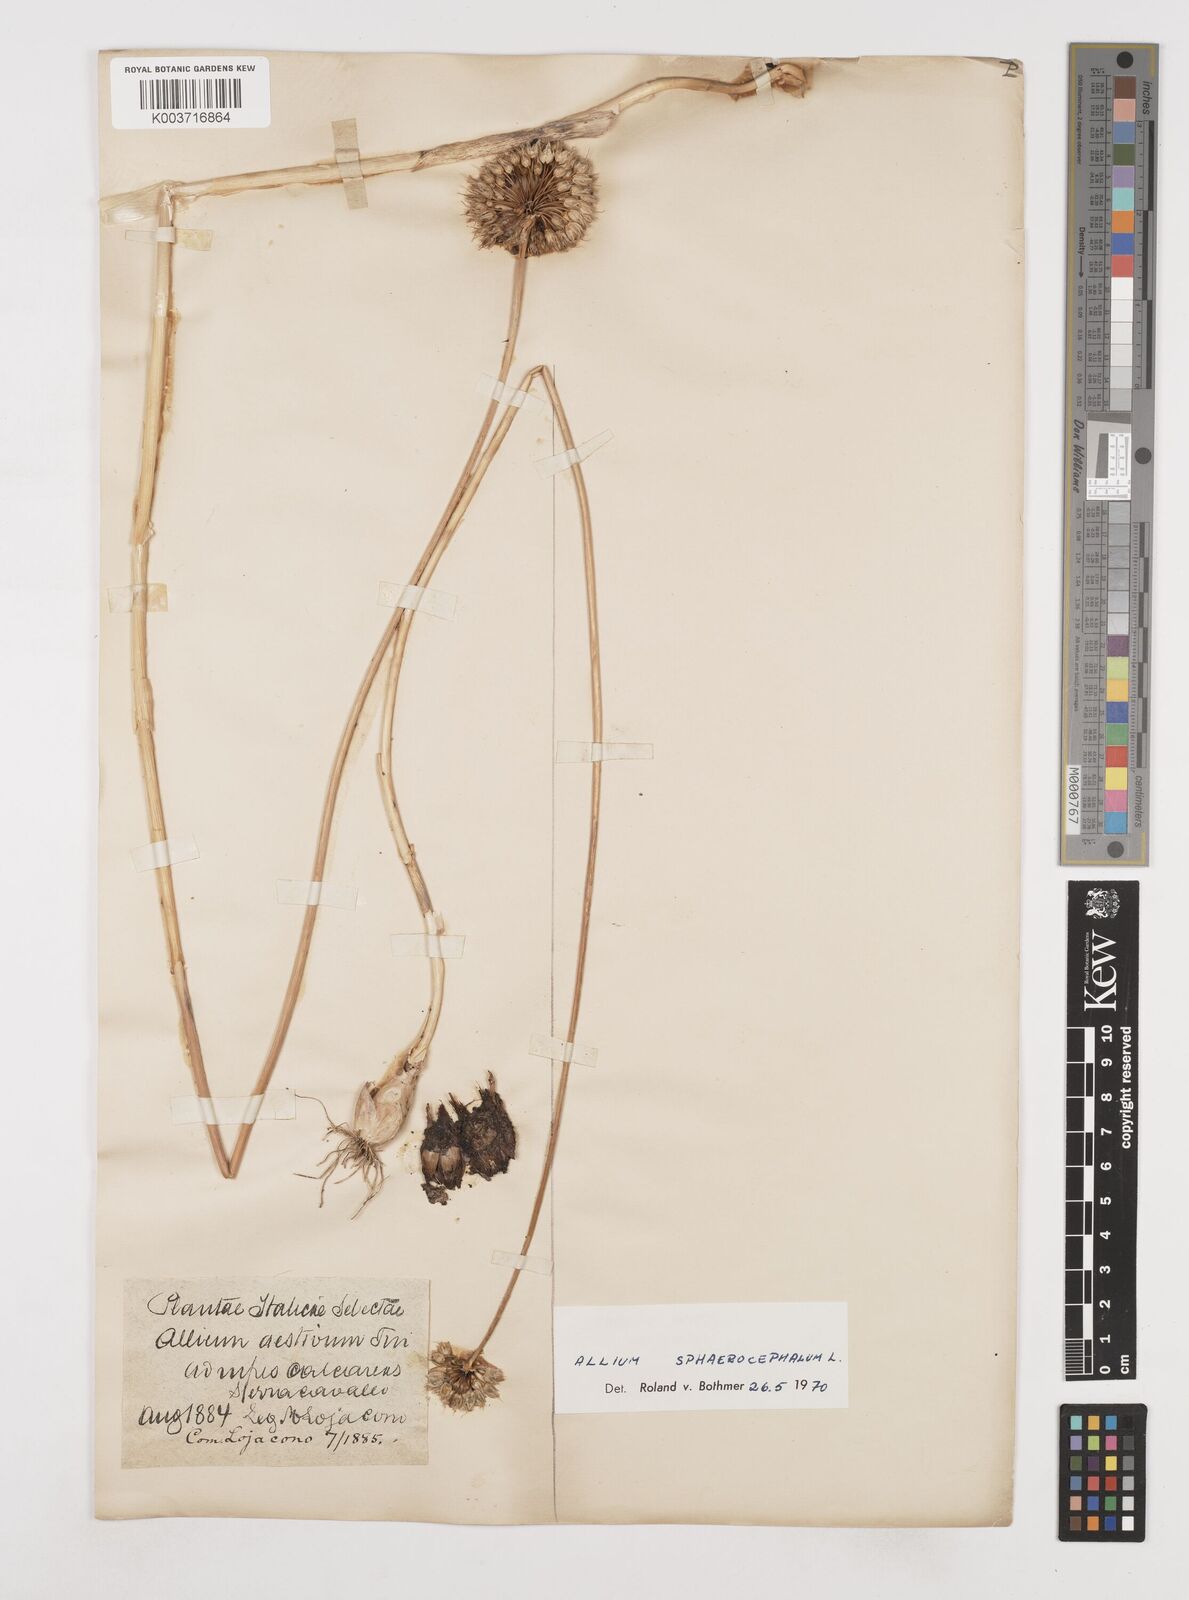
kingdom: Plantae
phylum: Tracheophyta
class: Liliopsida
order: Asparagales
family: Amaryllidaceae
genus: Allium
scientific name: Allium sphaerocephalon
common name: Round-headed leek
